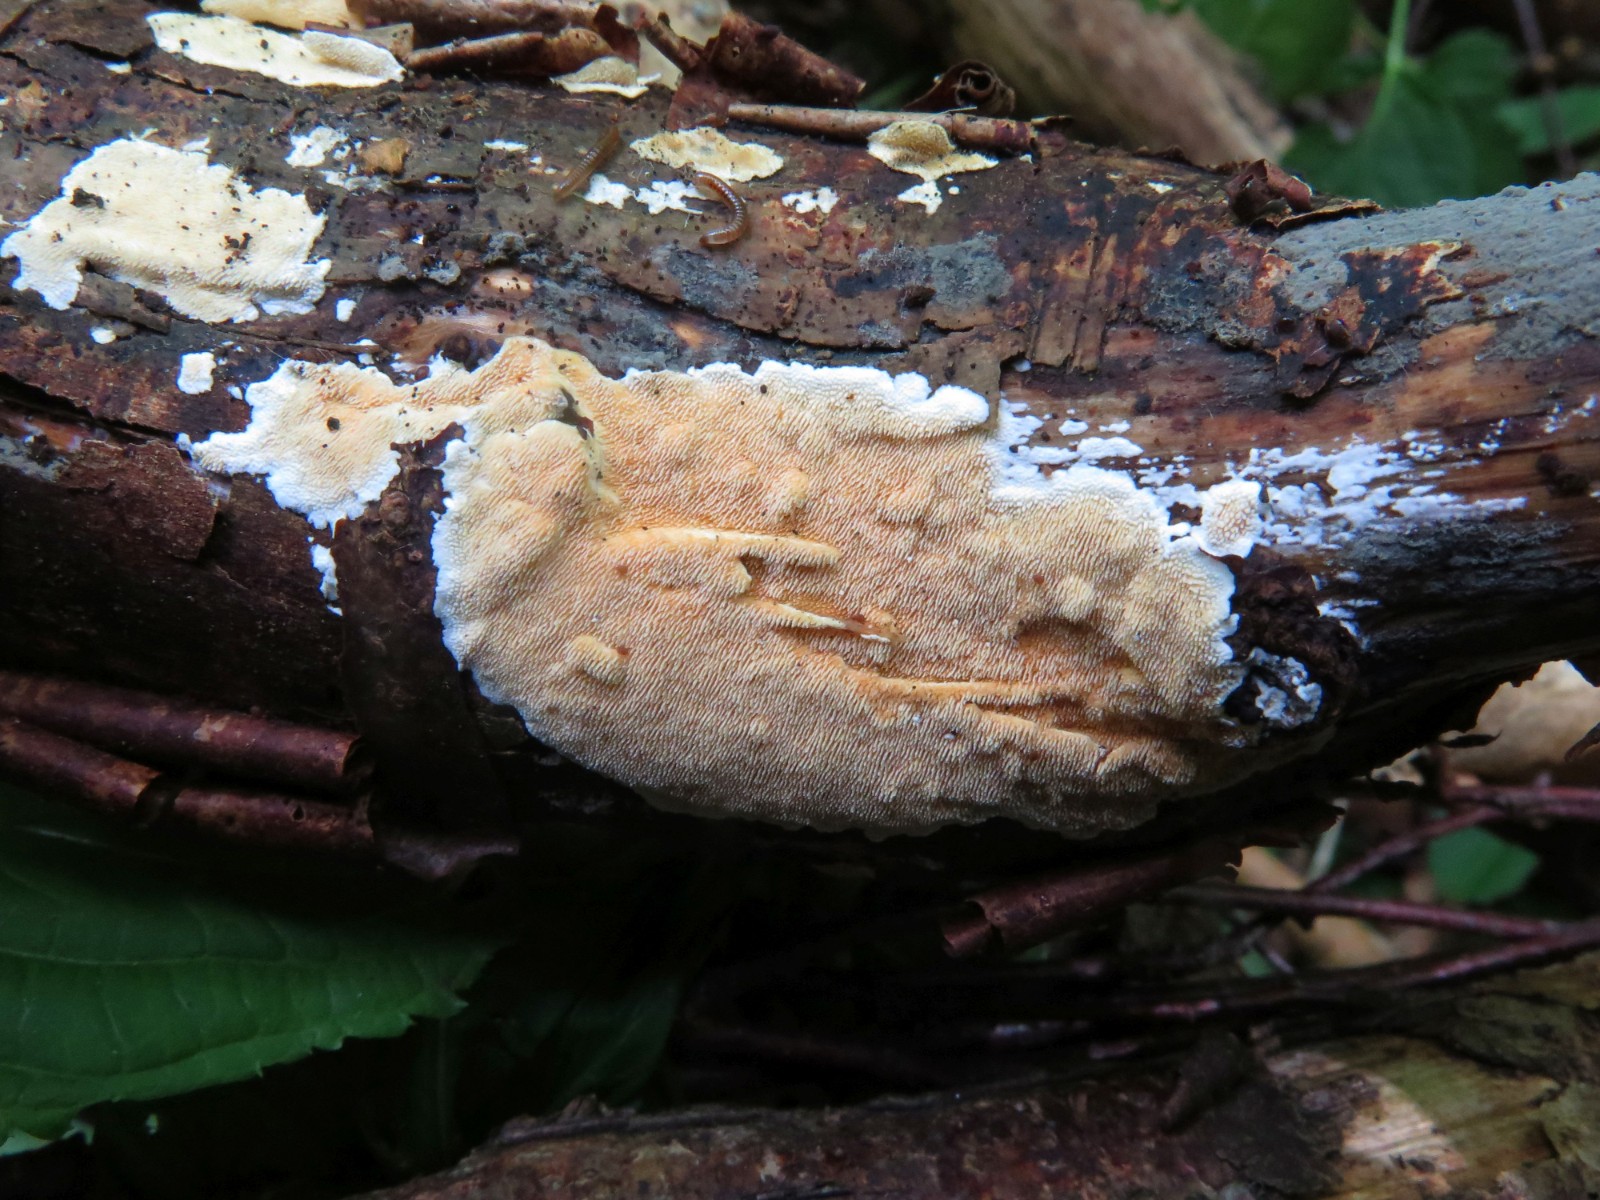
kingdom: Fungi
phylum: Basidiomycota
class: Agaricomycetes
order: Polyporales
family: Steccherinaceae
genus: Steccherinum
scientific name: Steccherinum ochraceum
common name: almindelig skønpig
